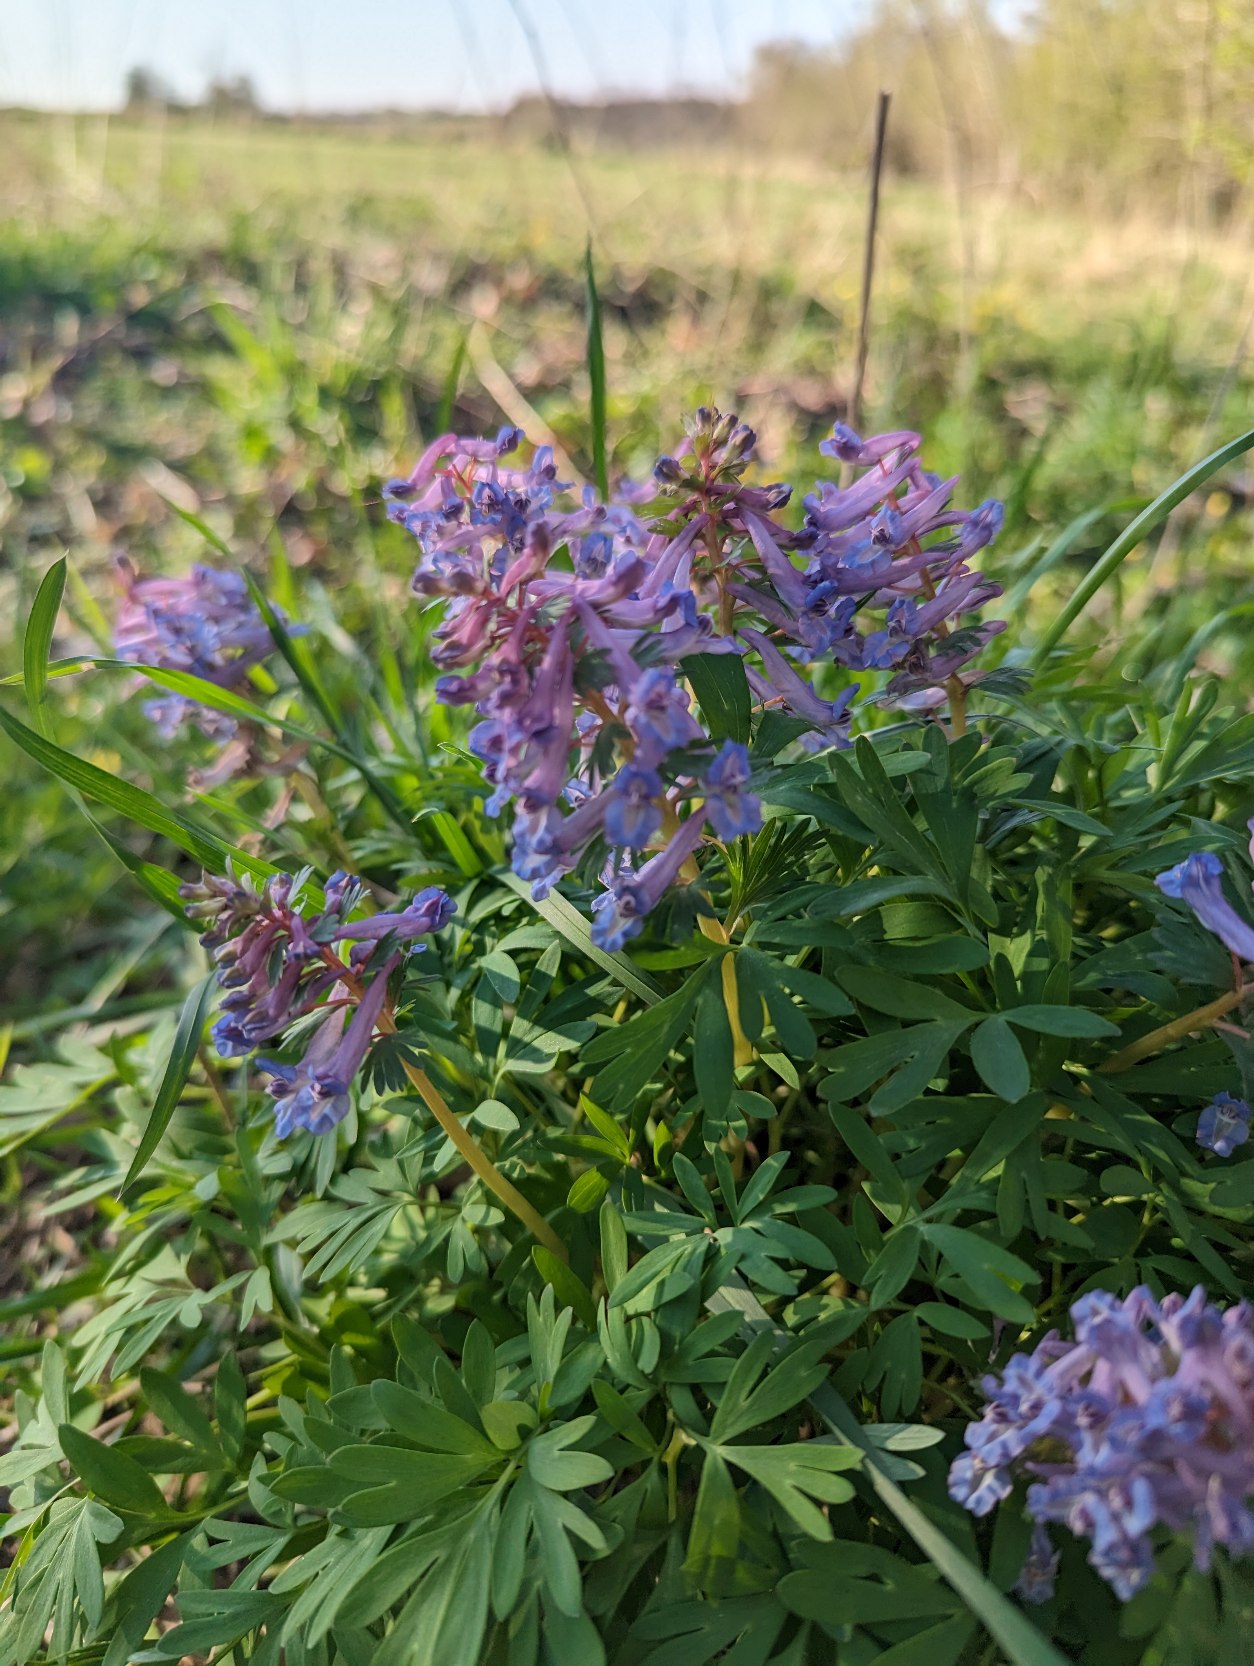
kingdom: Plantae
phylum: Tracheophyta
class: Magnoliopsida
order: Ranunculales
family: Papaveraceae
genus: Corydalis
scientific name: Corydalis solida
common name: Langstilket lærkespore
